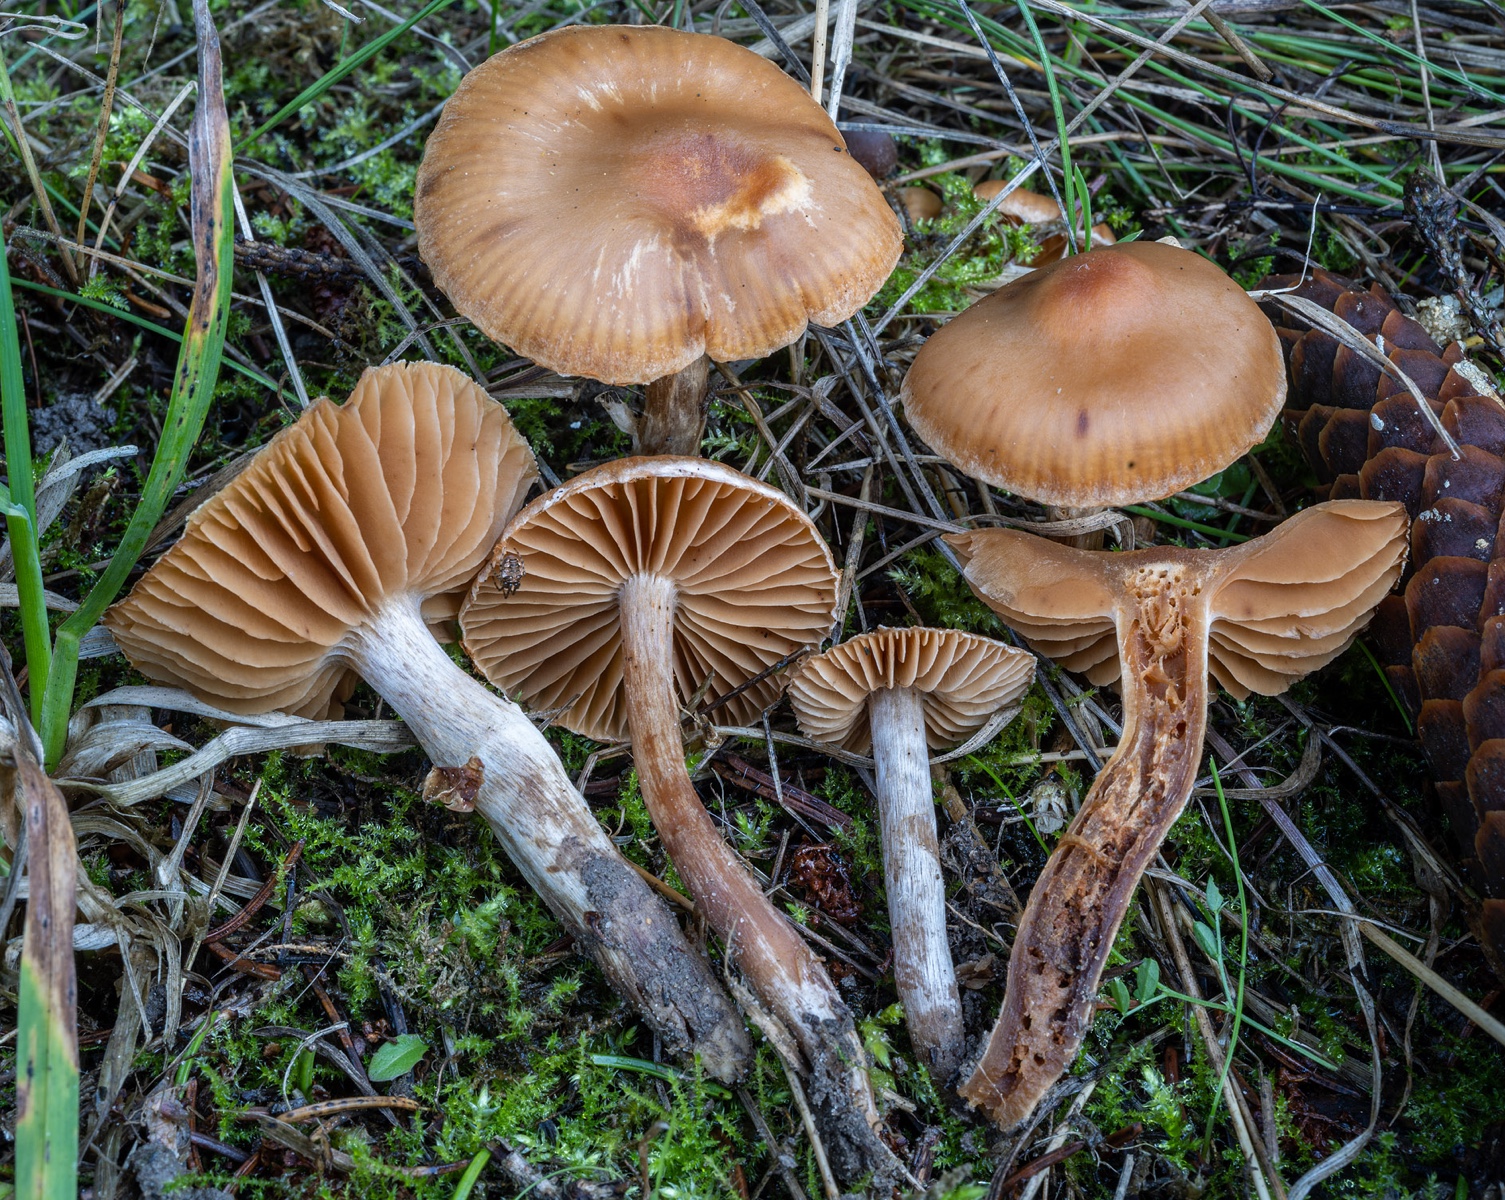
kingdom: Fungi
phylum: Basidiomycota
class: Agaricomycetes
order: Agaricales
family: Cortinariaceae
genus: Cortinarius
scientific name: Cortinarius
